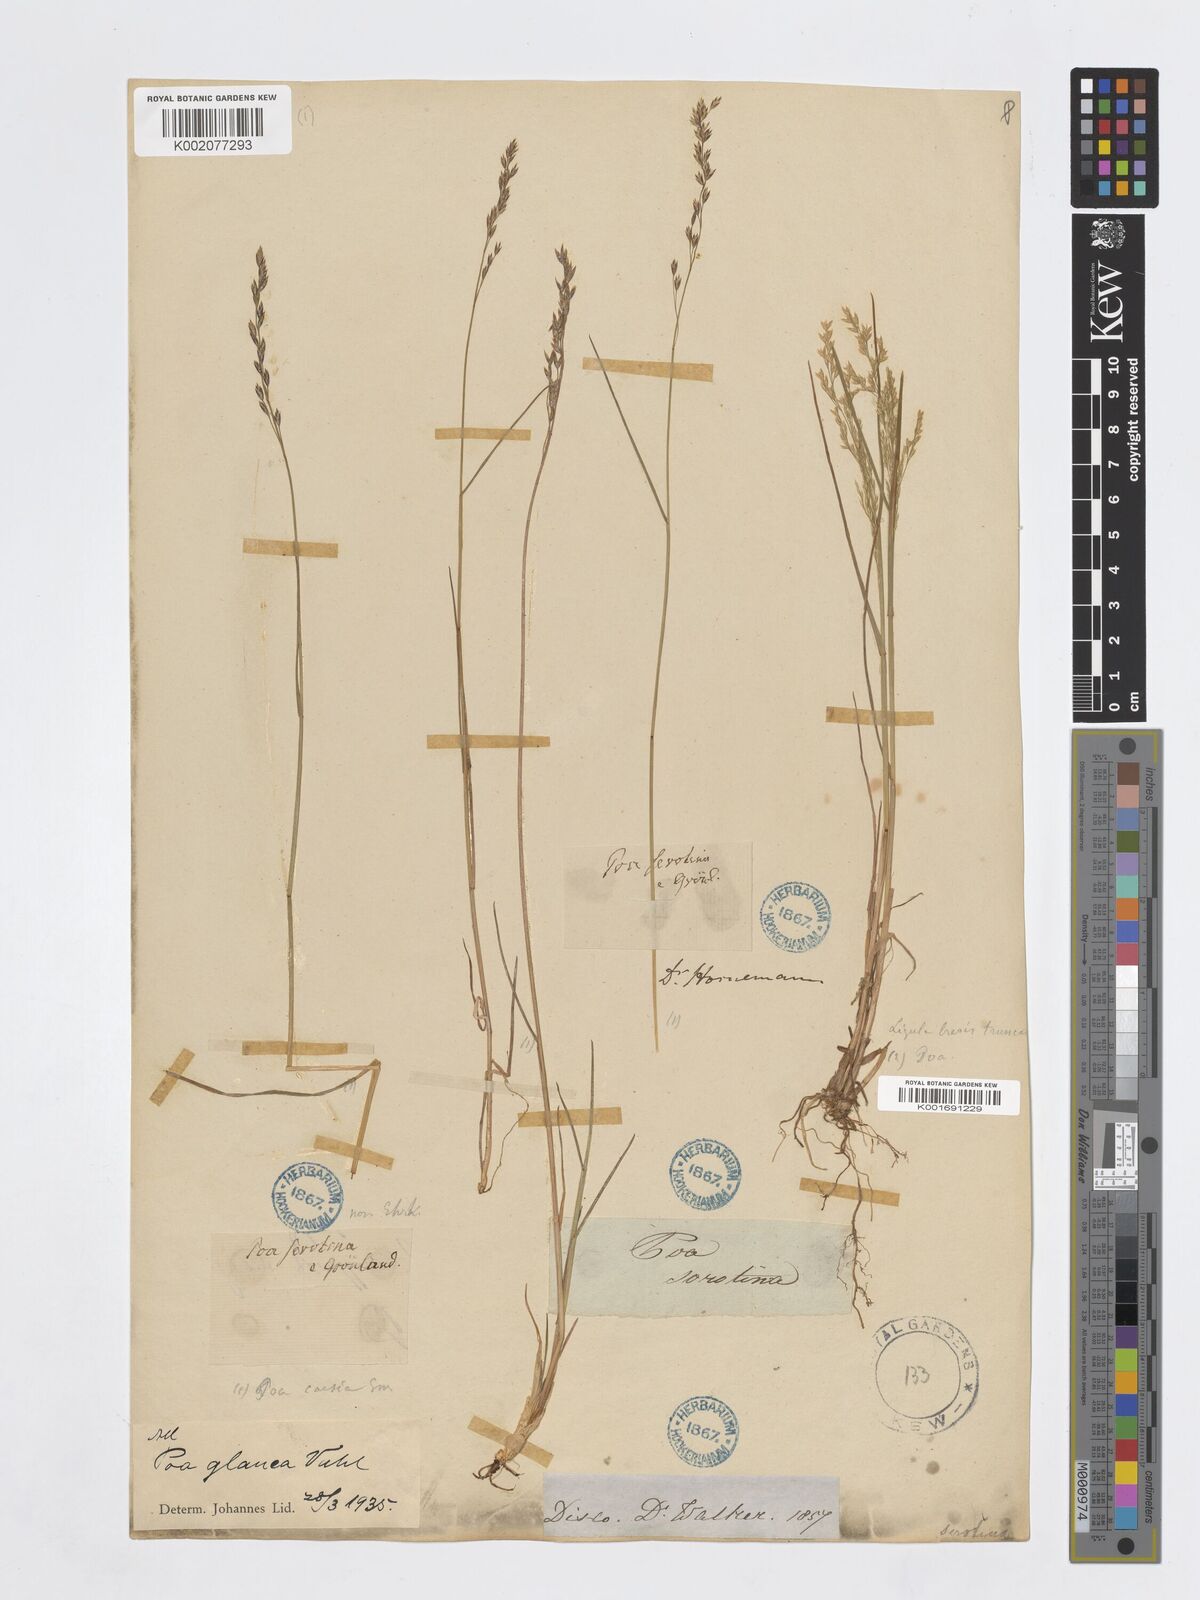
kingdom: Plantae
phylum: Tracheophyta
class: Liliopsida
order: Poales
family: Poaceae
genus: Poa
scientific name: Poa glauca
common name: Glaucous bluegrass
